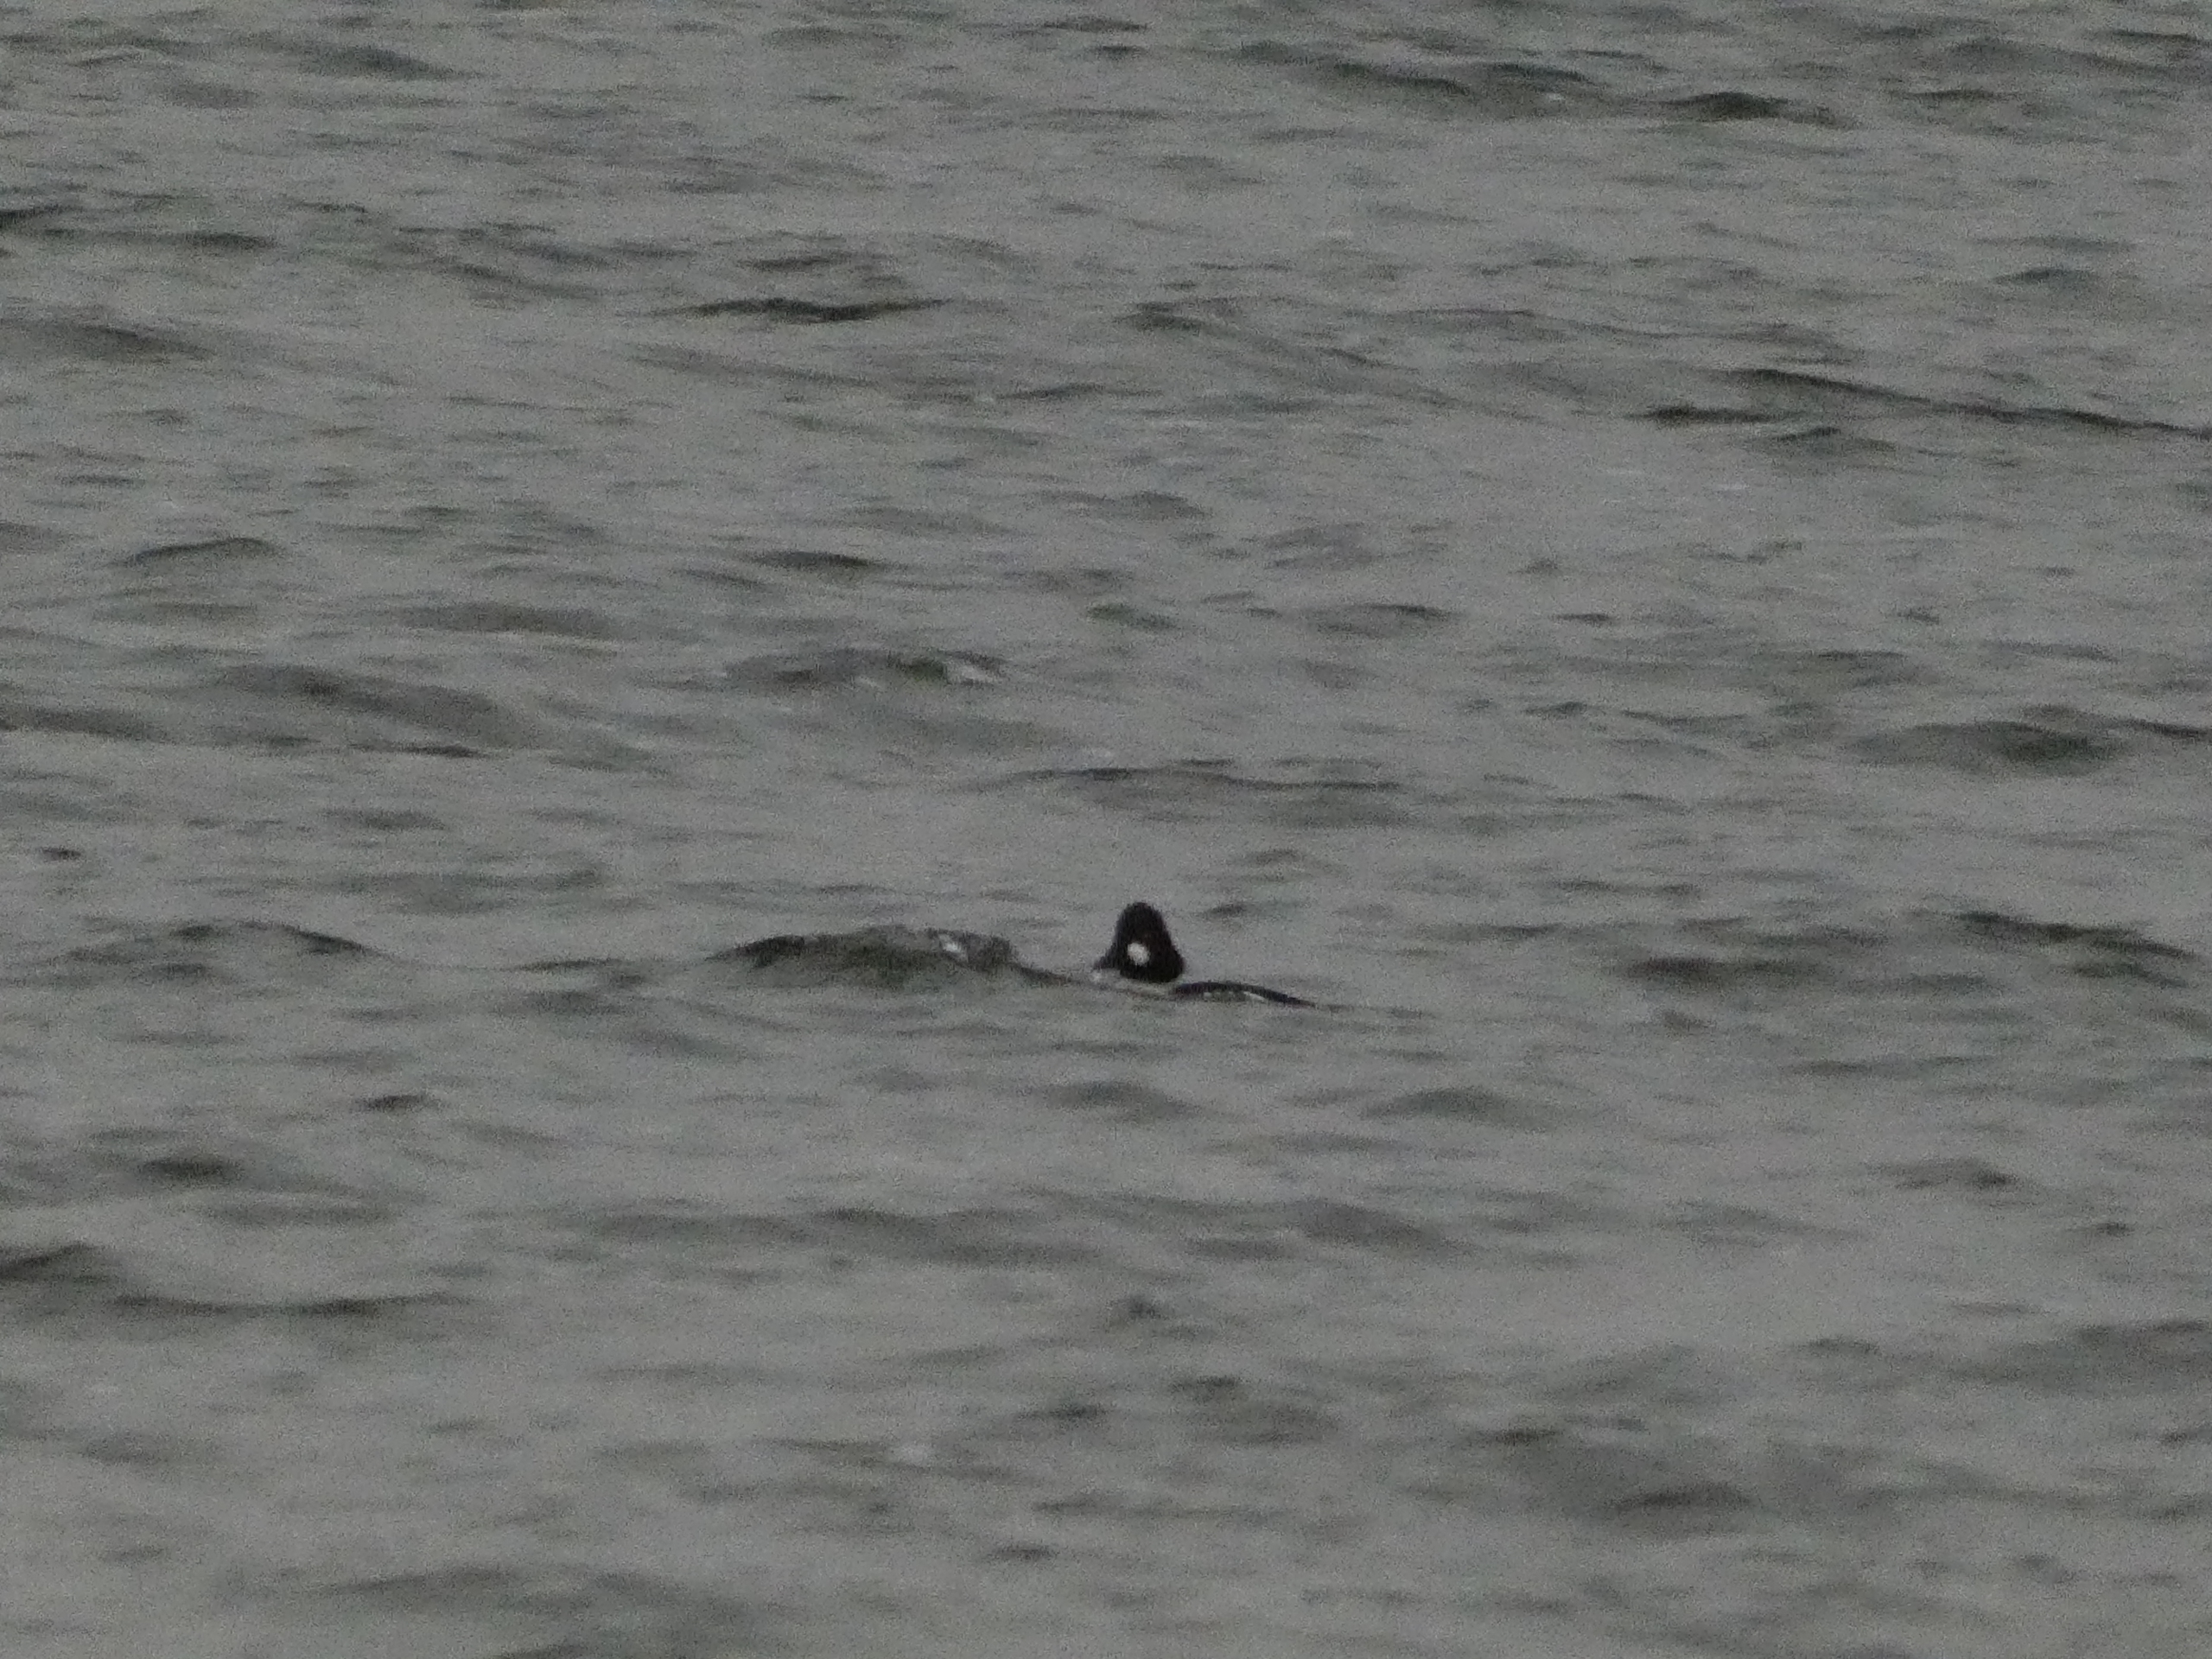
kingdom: Animalia
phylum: Chordata
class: Aves
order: Anseriformes
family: Anatidae
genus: Bucephala
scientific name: Bucephala clangula
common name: Hvinand
